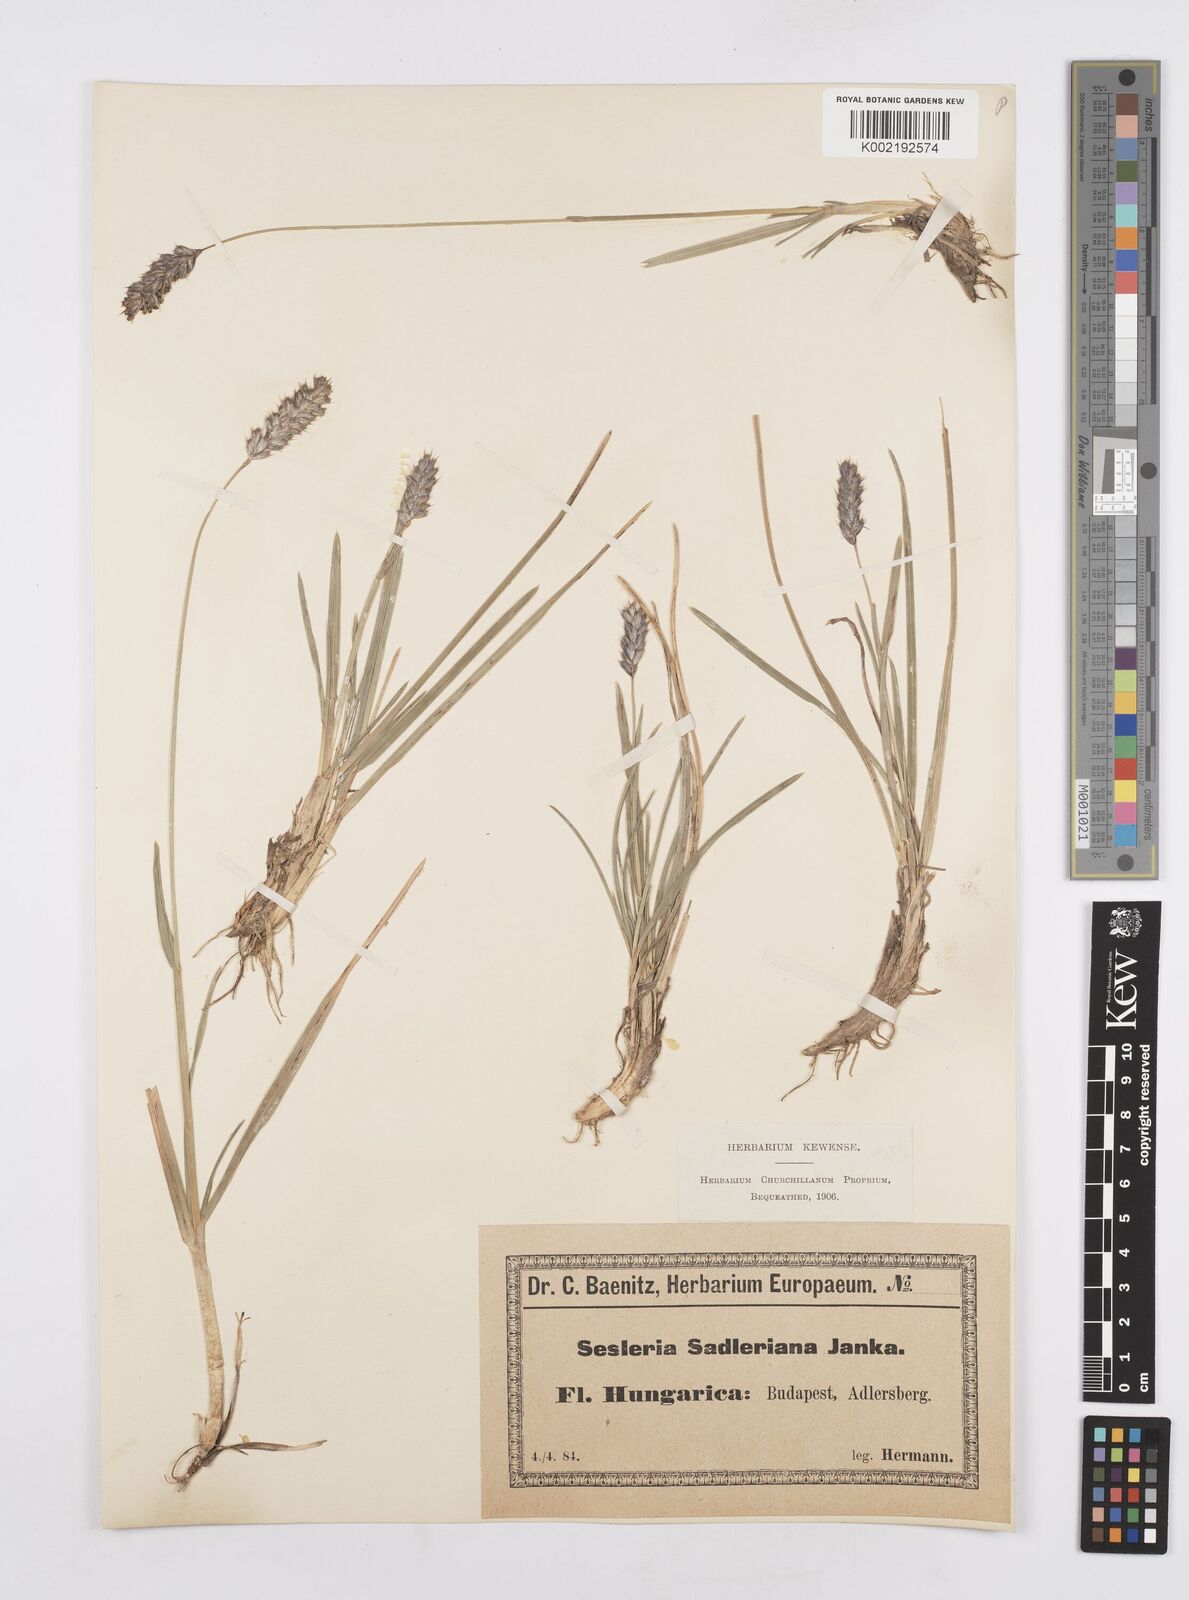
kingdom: Plantae
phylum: Tracheophyta
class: Liliopsida
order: Poales
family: Poaceae
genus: Sesleria
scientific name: Sesleria sadleriana
